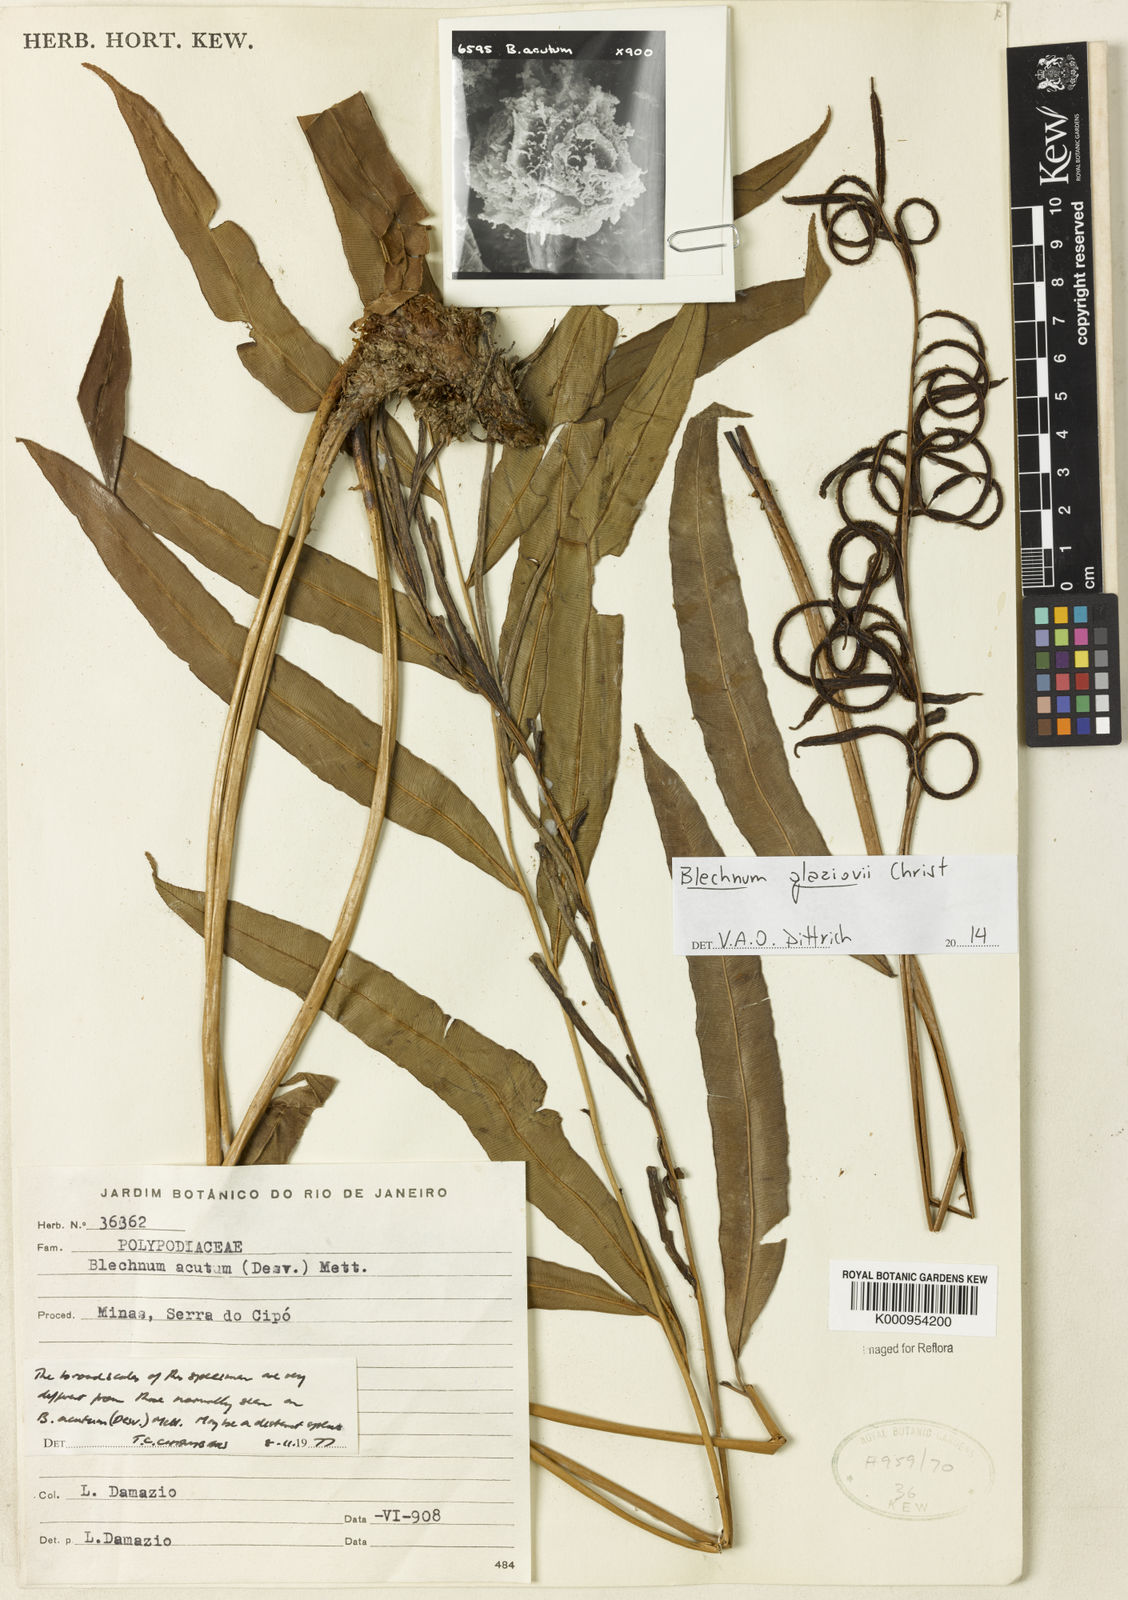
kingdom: Plantae
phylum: Tracheophyta
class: Polypodiopsida
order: Polypodiales
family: Blechnaceae
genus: Lomaridium
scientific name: Lomaridium acutum
